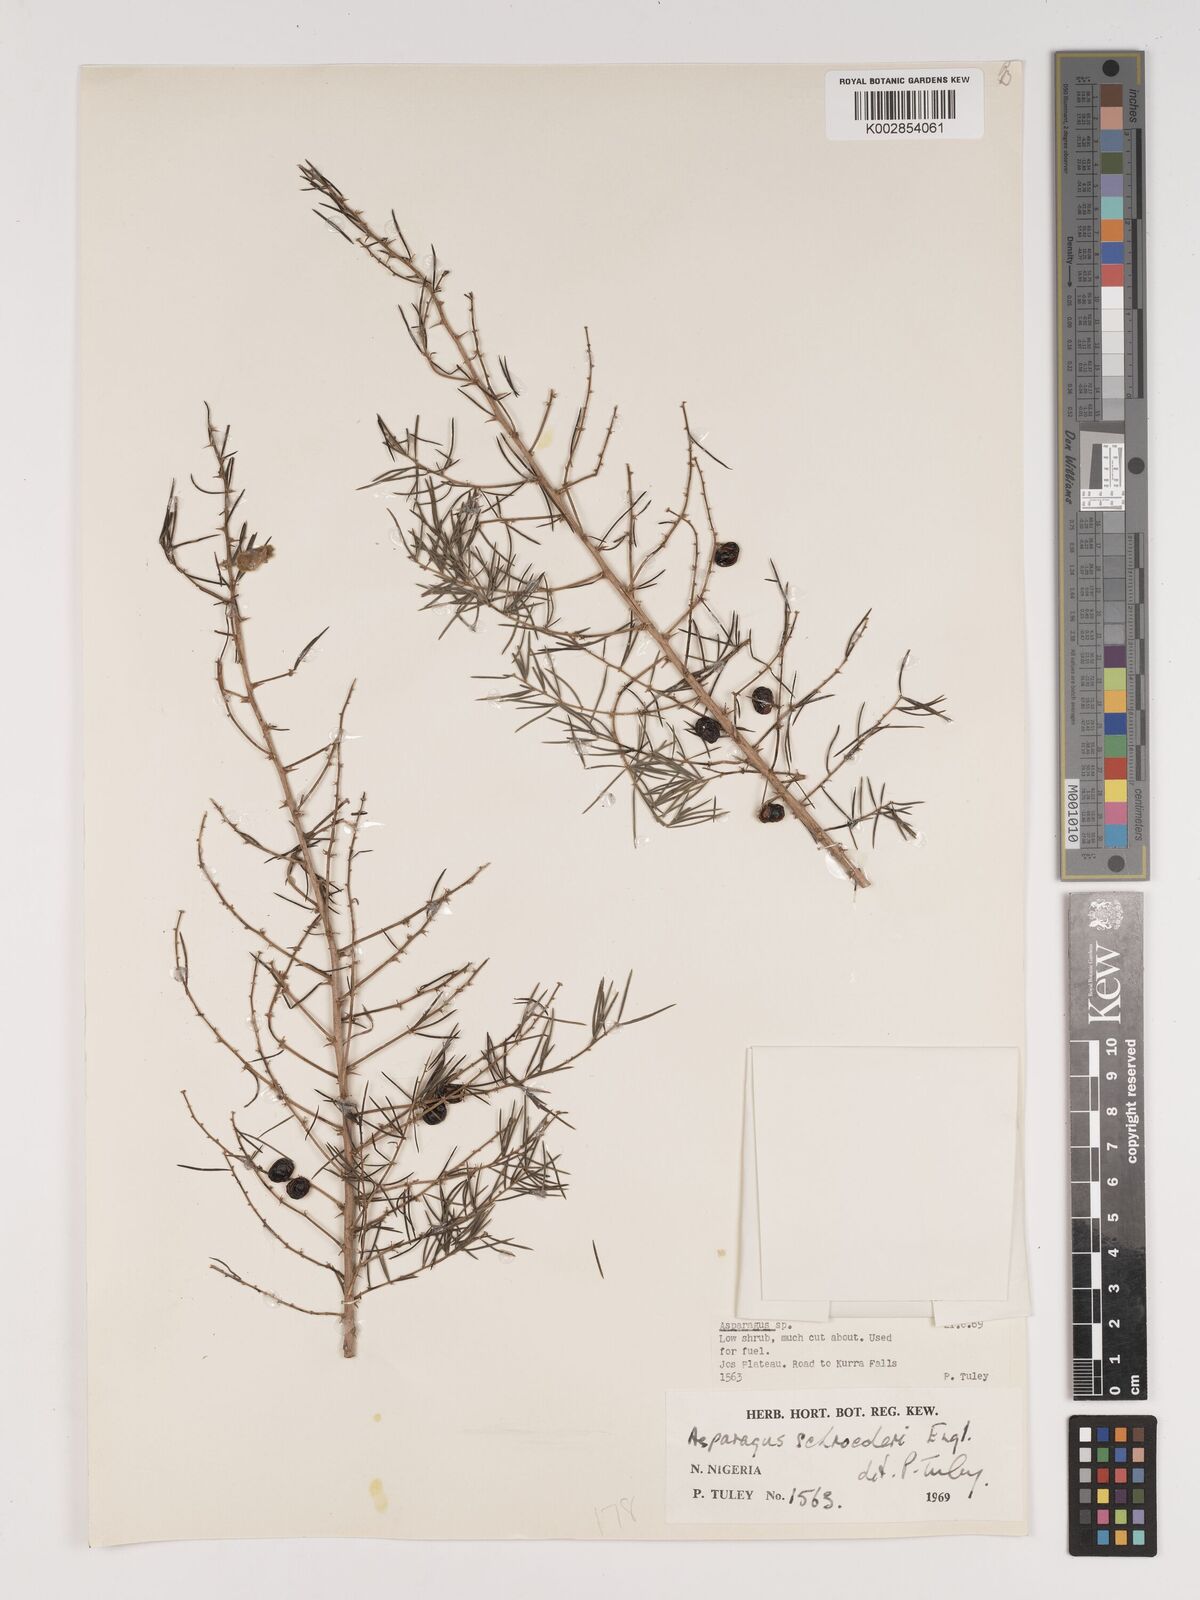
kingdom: Plantae
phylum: Tracheophyta
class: Liliopsida
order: Asparagales
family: Asparagaceae
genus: Asparagus
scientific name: Asparagus schroederi
